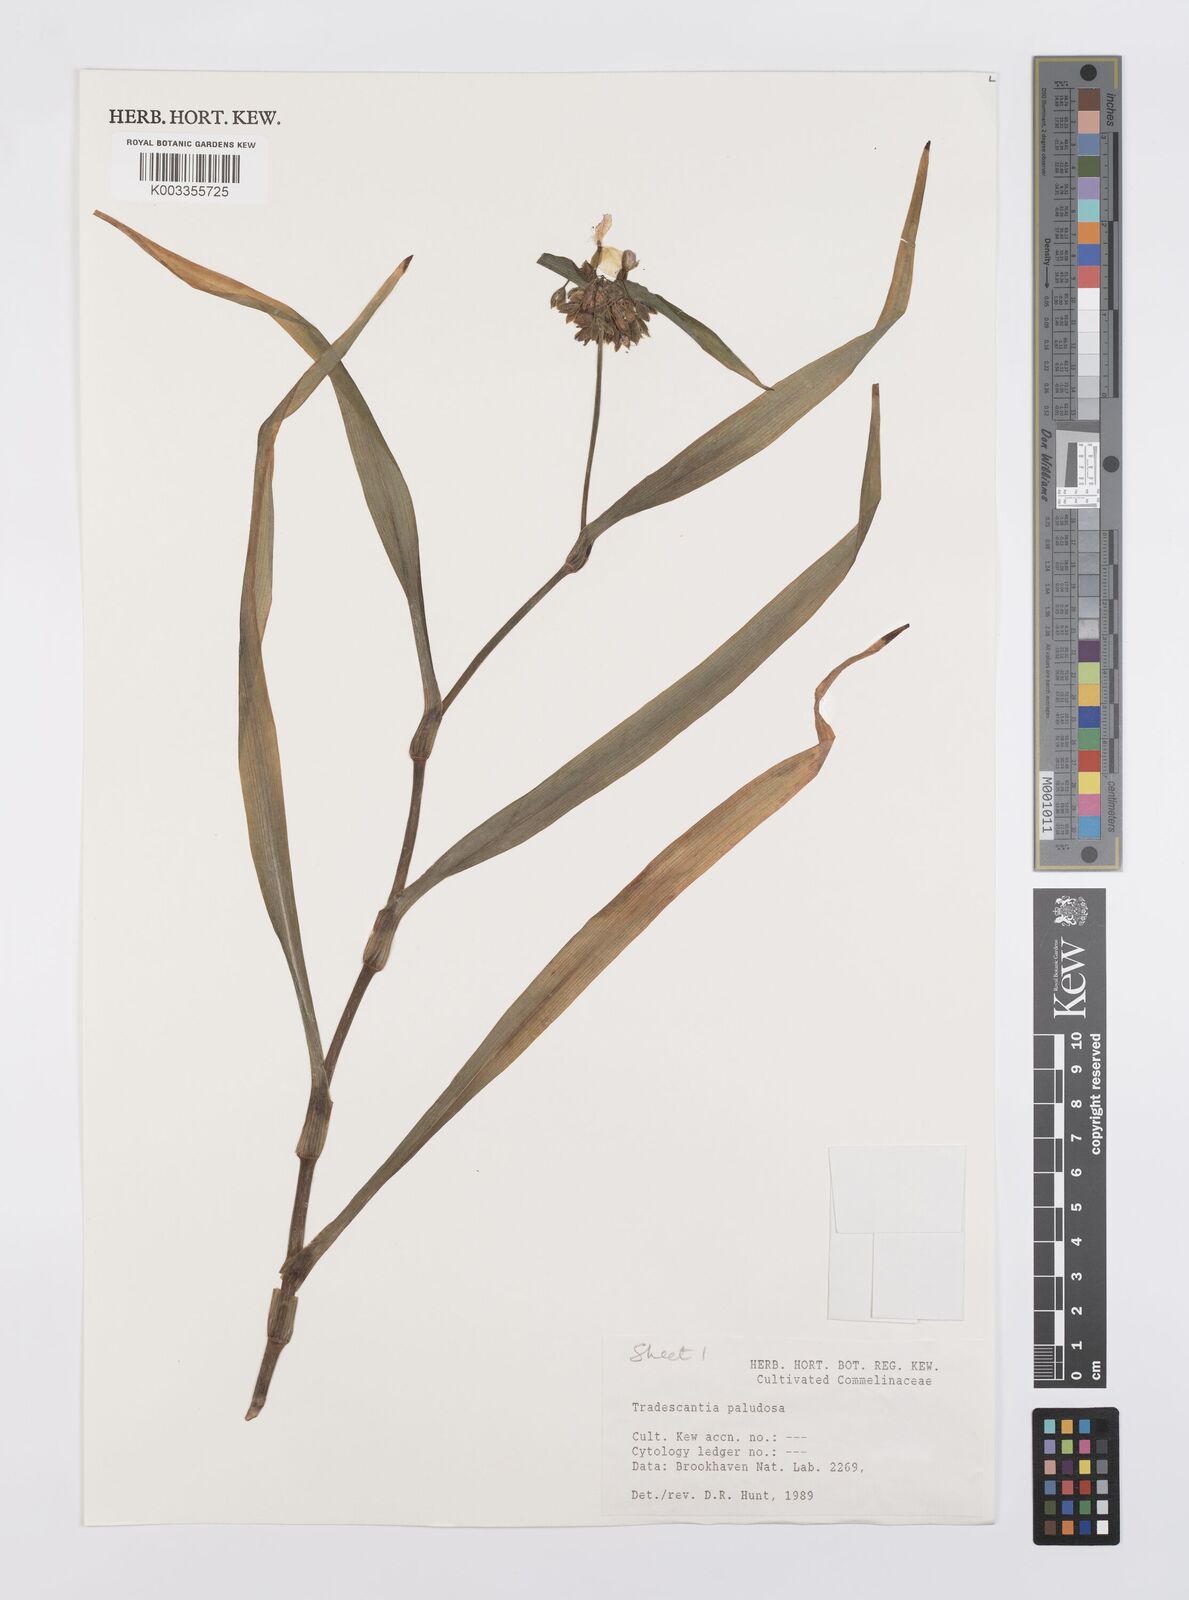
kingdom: Plantae
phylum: Tracheophyta
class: Liliopsida
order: Commelinales
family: Commelinaceae
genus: Tradescantia
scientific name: Tradescantia ohiensis
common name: Ohio spiderwort
